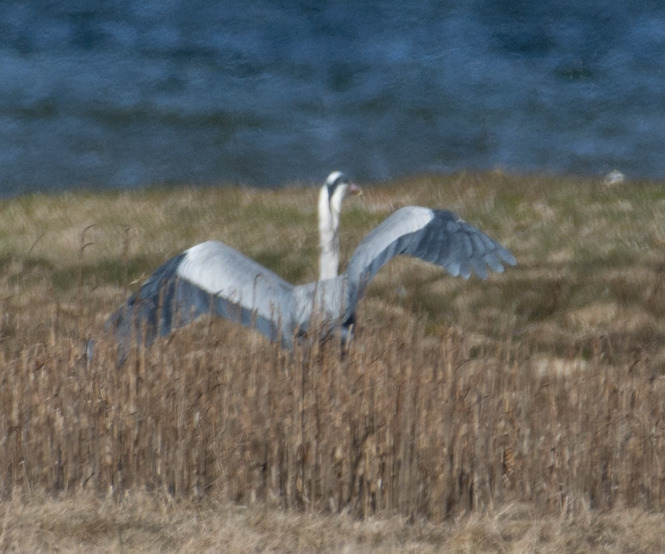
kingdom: Animalia
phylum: Chordata
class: Aves
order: Pelecaniformes
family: Ardeidae
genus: Ardea
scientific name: Ardea cinerea
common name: Fiskehejre
